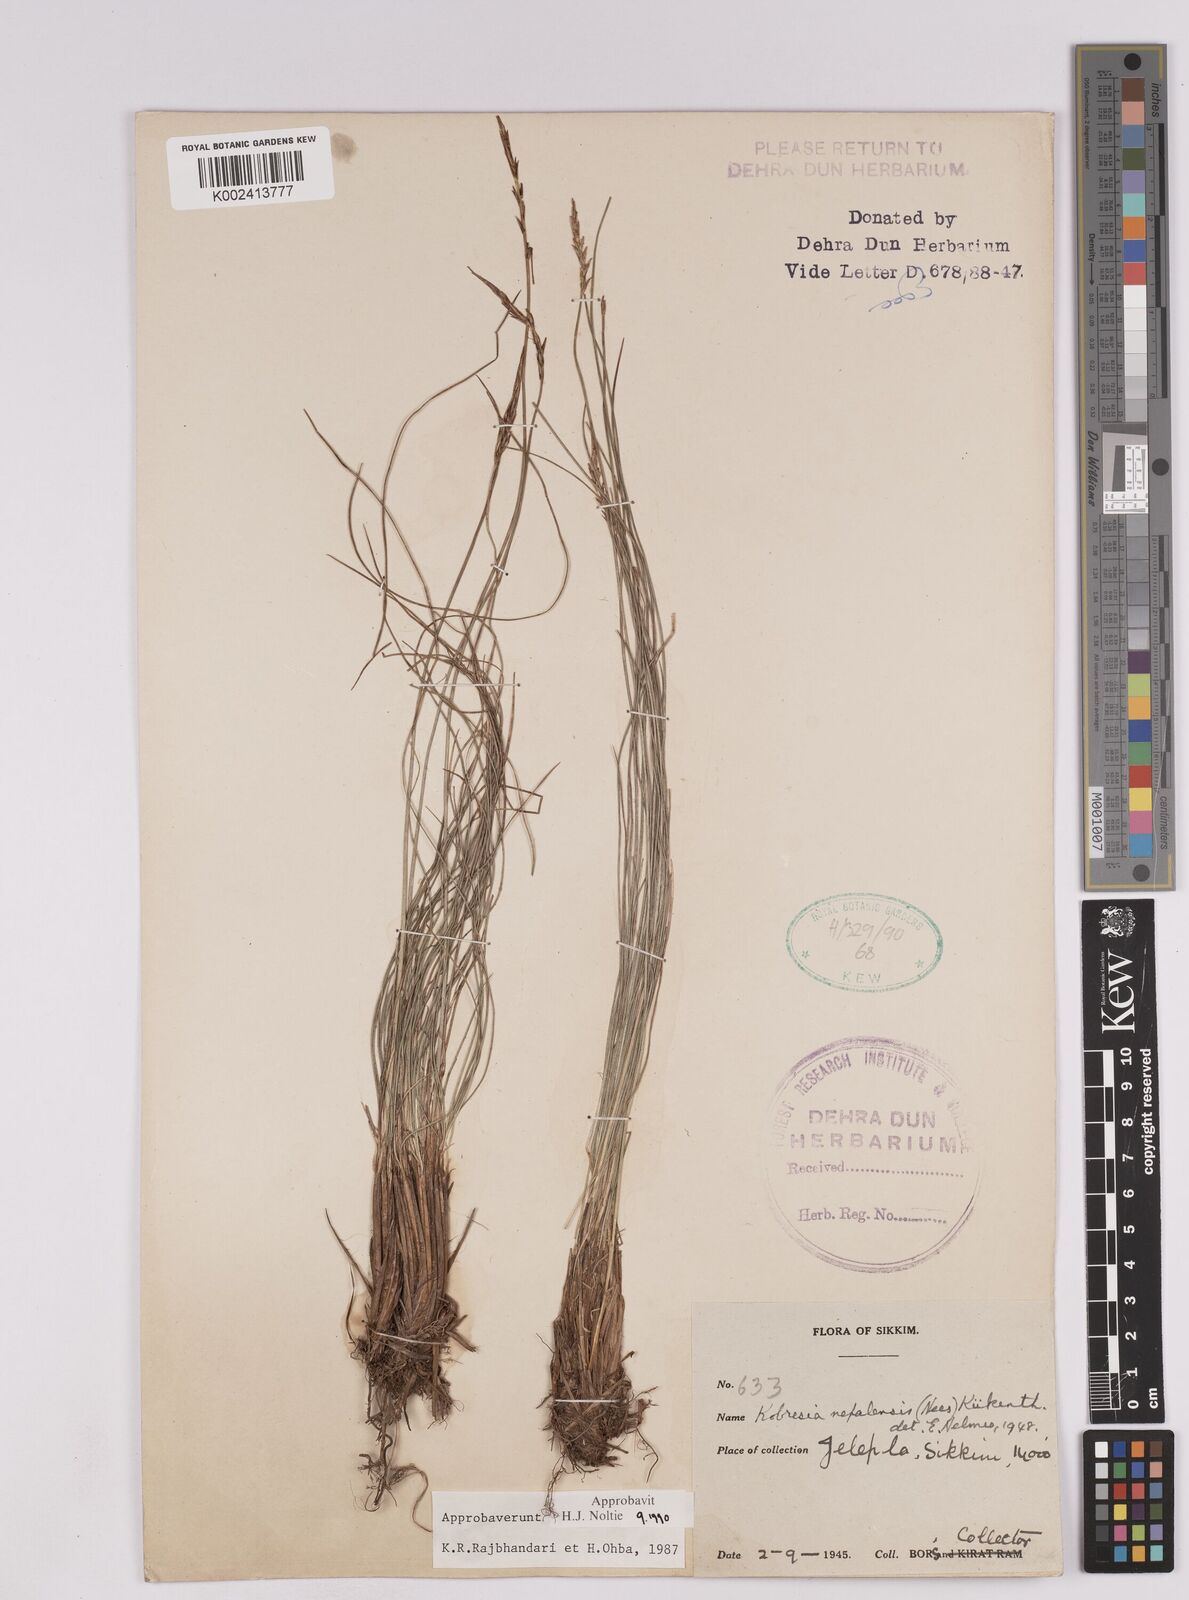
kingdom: Plantae
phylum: Tracheophyta
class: Liliopsida
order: Poales
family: Cyperaceae
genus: Carex
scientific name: Carex unciniiformis
